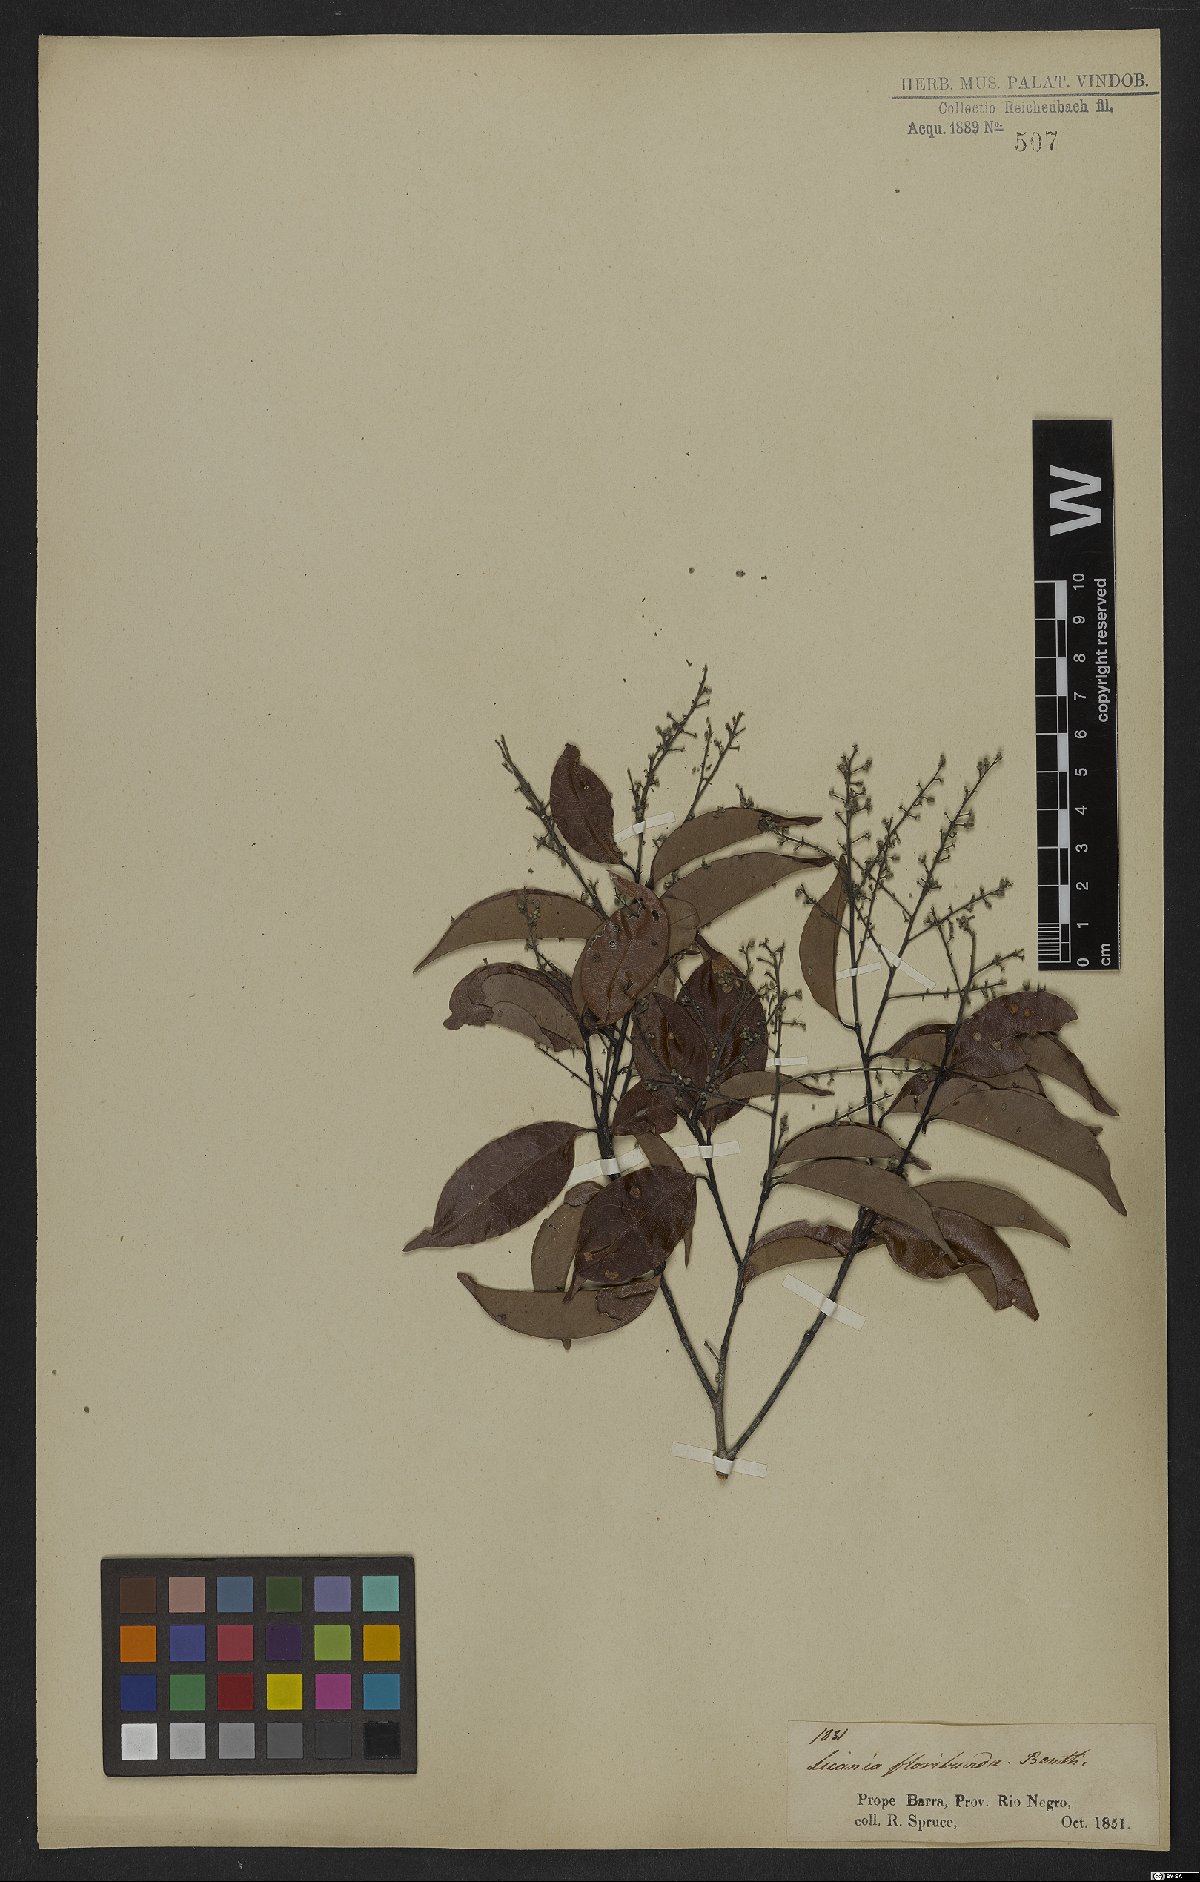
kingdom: Plantae
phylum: Tracheophyta
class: Magnoliopsida
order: Malpighiales
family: Chrysobalanaceae
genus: Leptobalanus
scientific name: Leptobalanus apetalus
